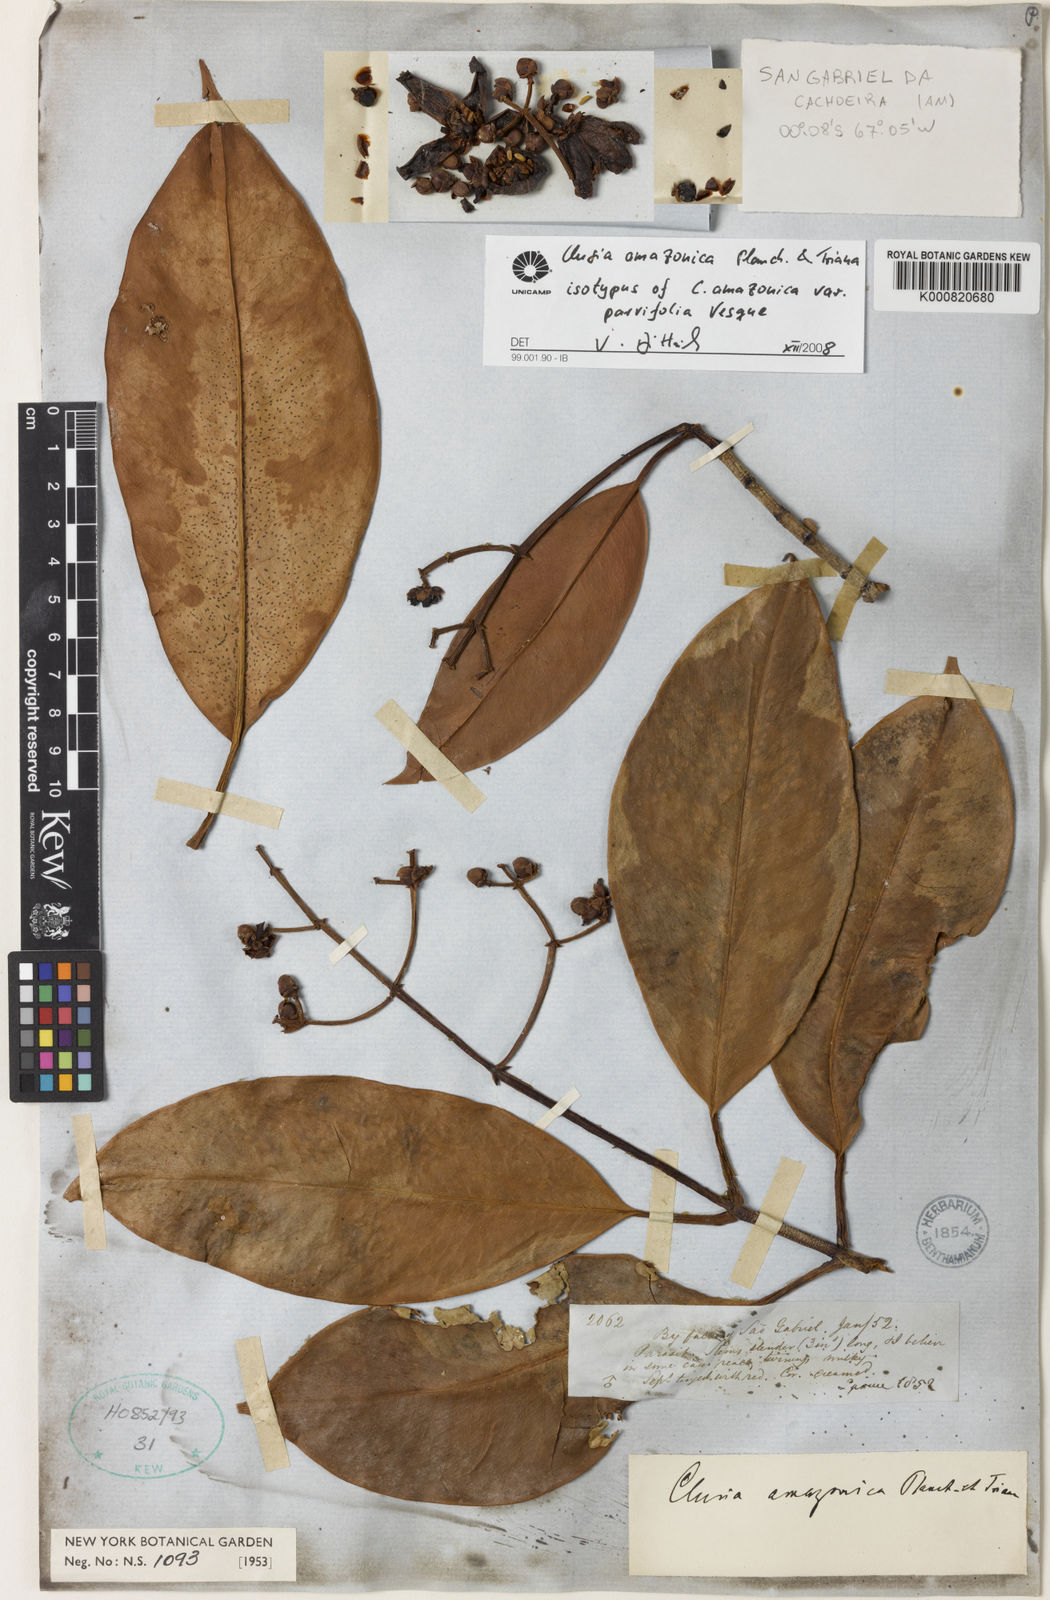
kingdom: Plantae
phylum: Tracheophyta
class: Magnoliopsida
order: Malpighiales
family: Clusiaceae
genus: Clusia
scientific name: Clusia amazonica
